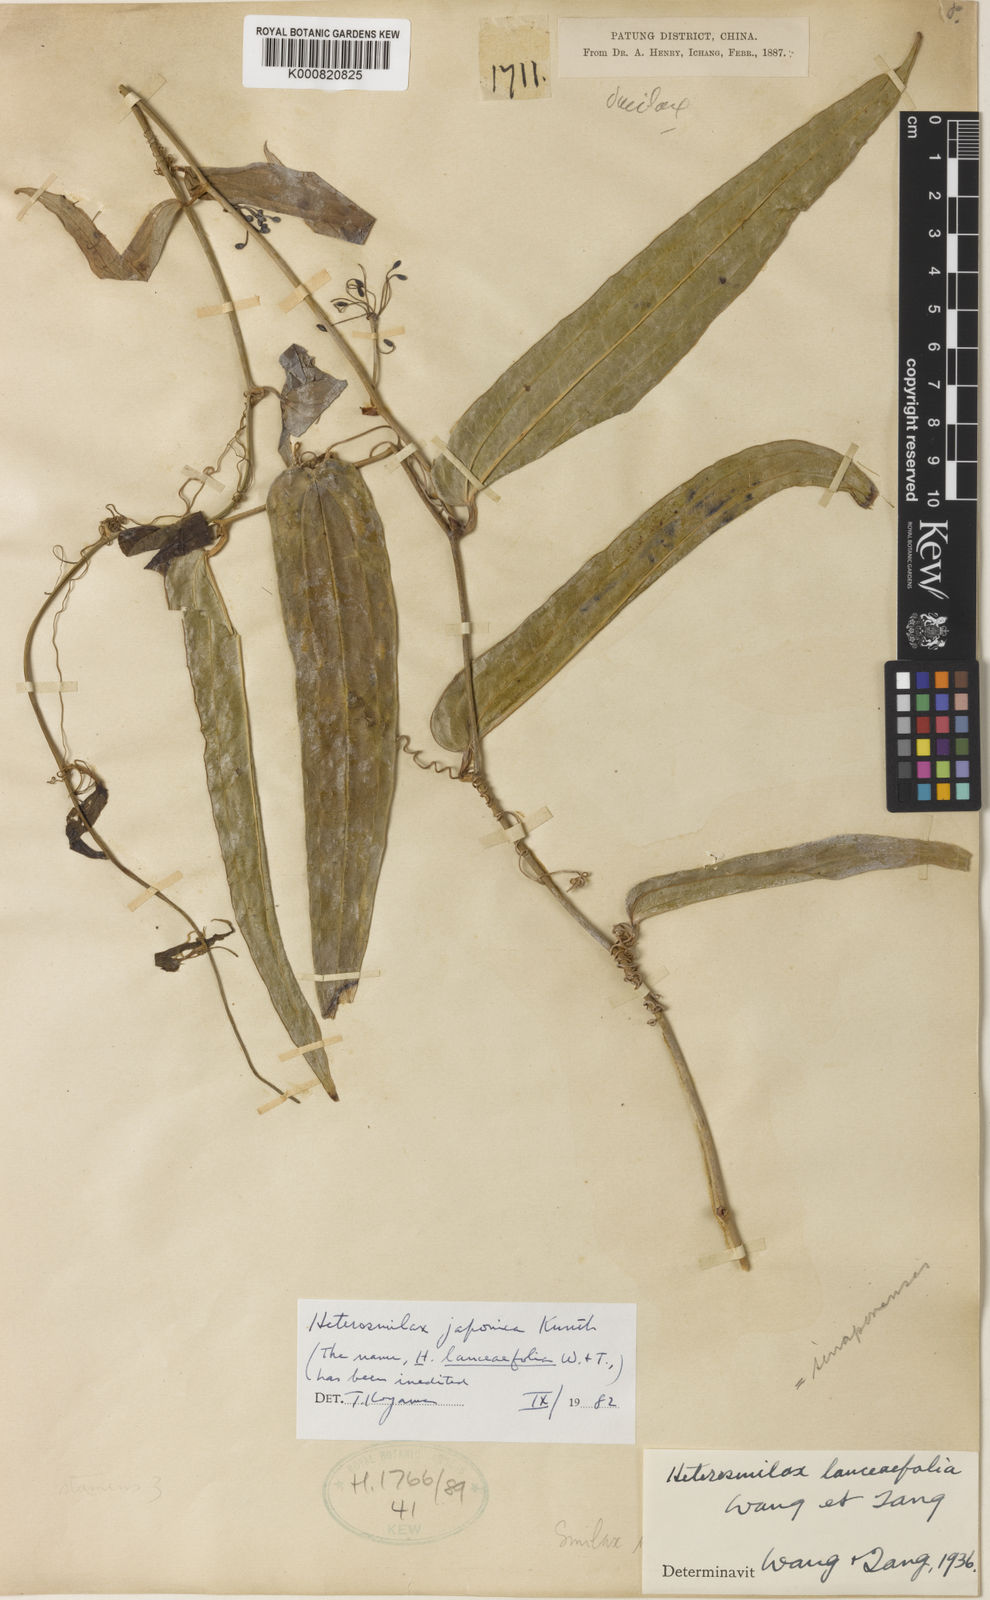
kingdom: Plantae
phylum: Tracheophyta
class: Liliopsida
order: Liliales
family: Smilacaceae
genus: Smilax
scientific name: Smilax bockii
